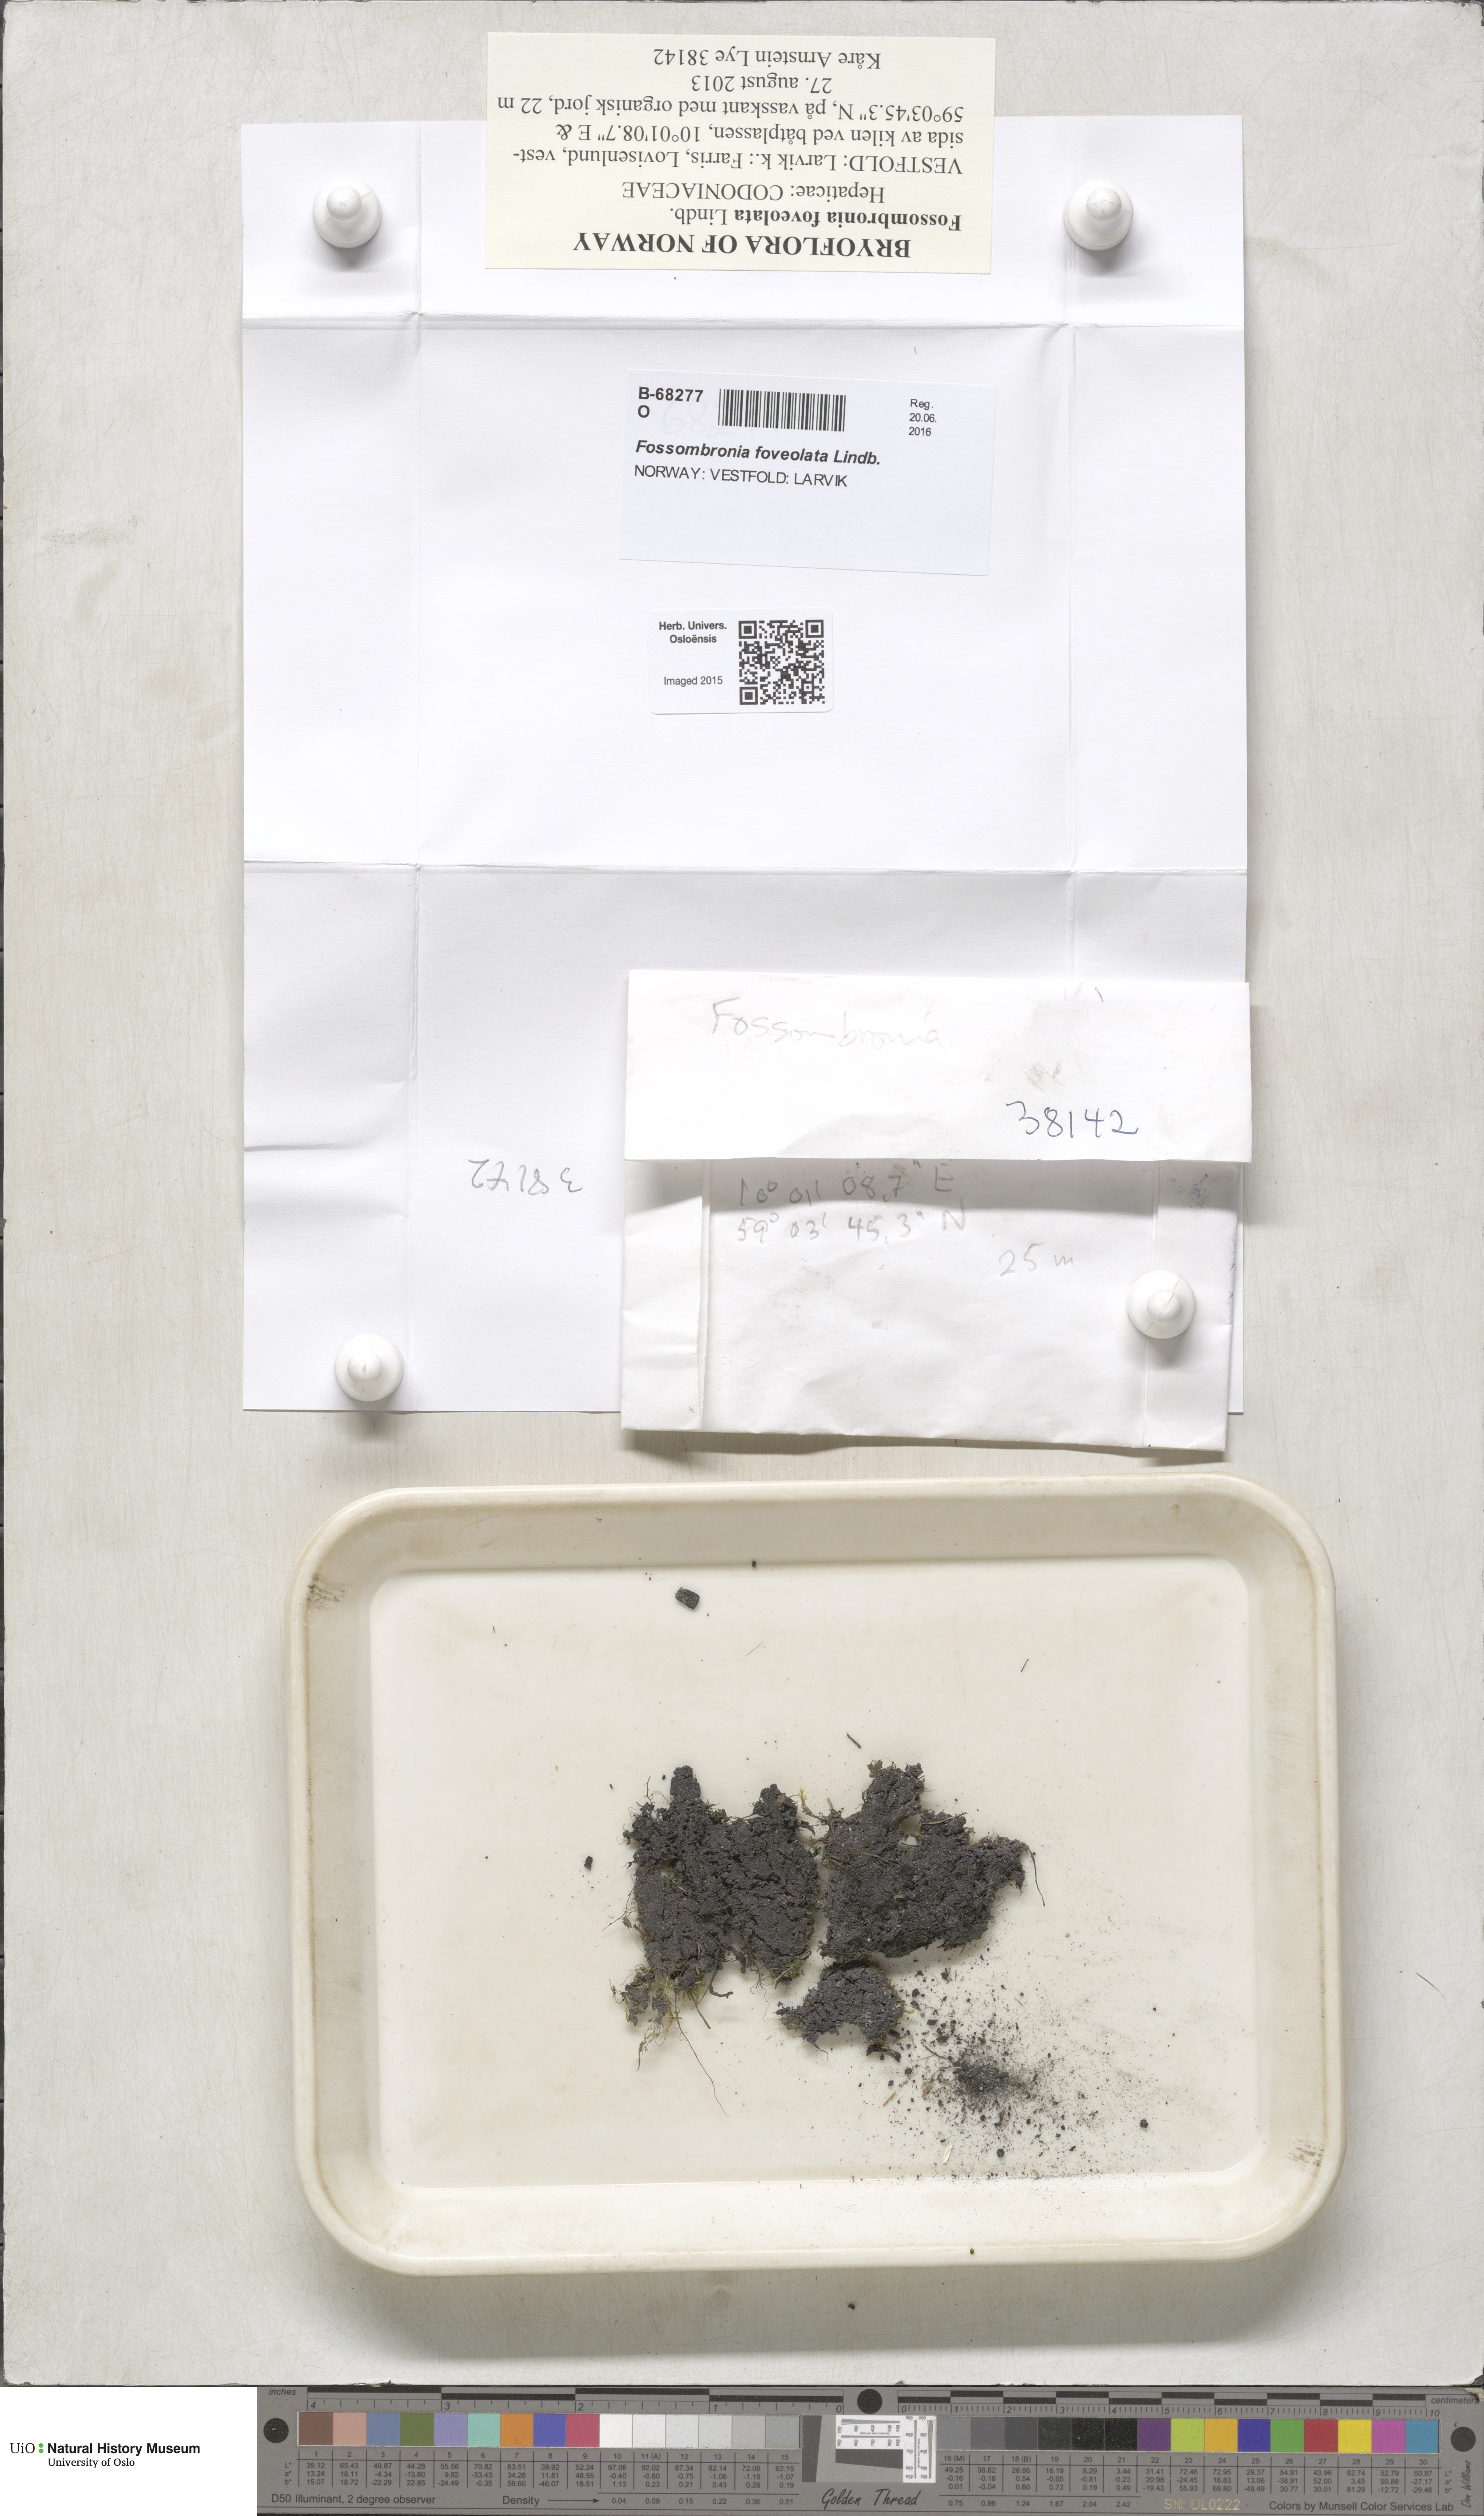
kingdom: Plantae
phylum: Marchantiophyta
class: Jungermanniopsida
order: Fossombroniales
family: Fossombroniaceae
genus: Fossombronia
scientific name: Fossombronia foveolata
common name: Pitted frillwort
